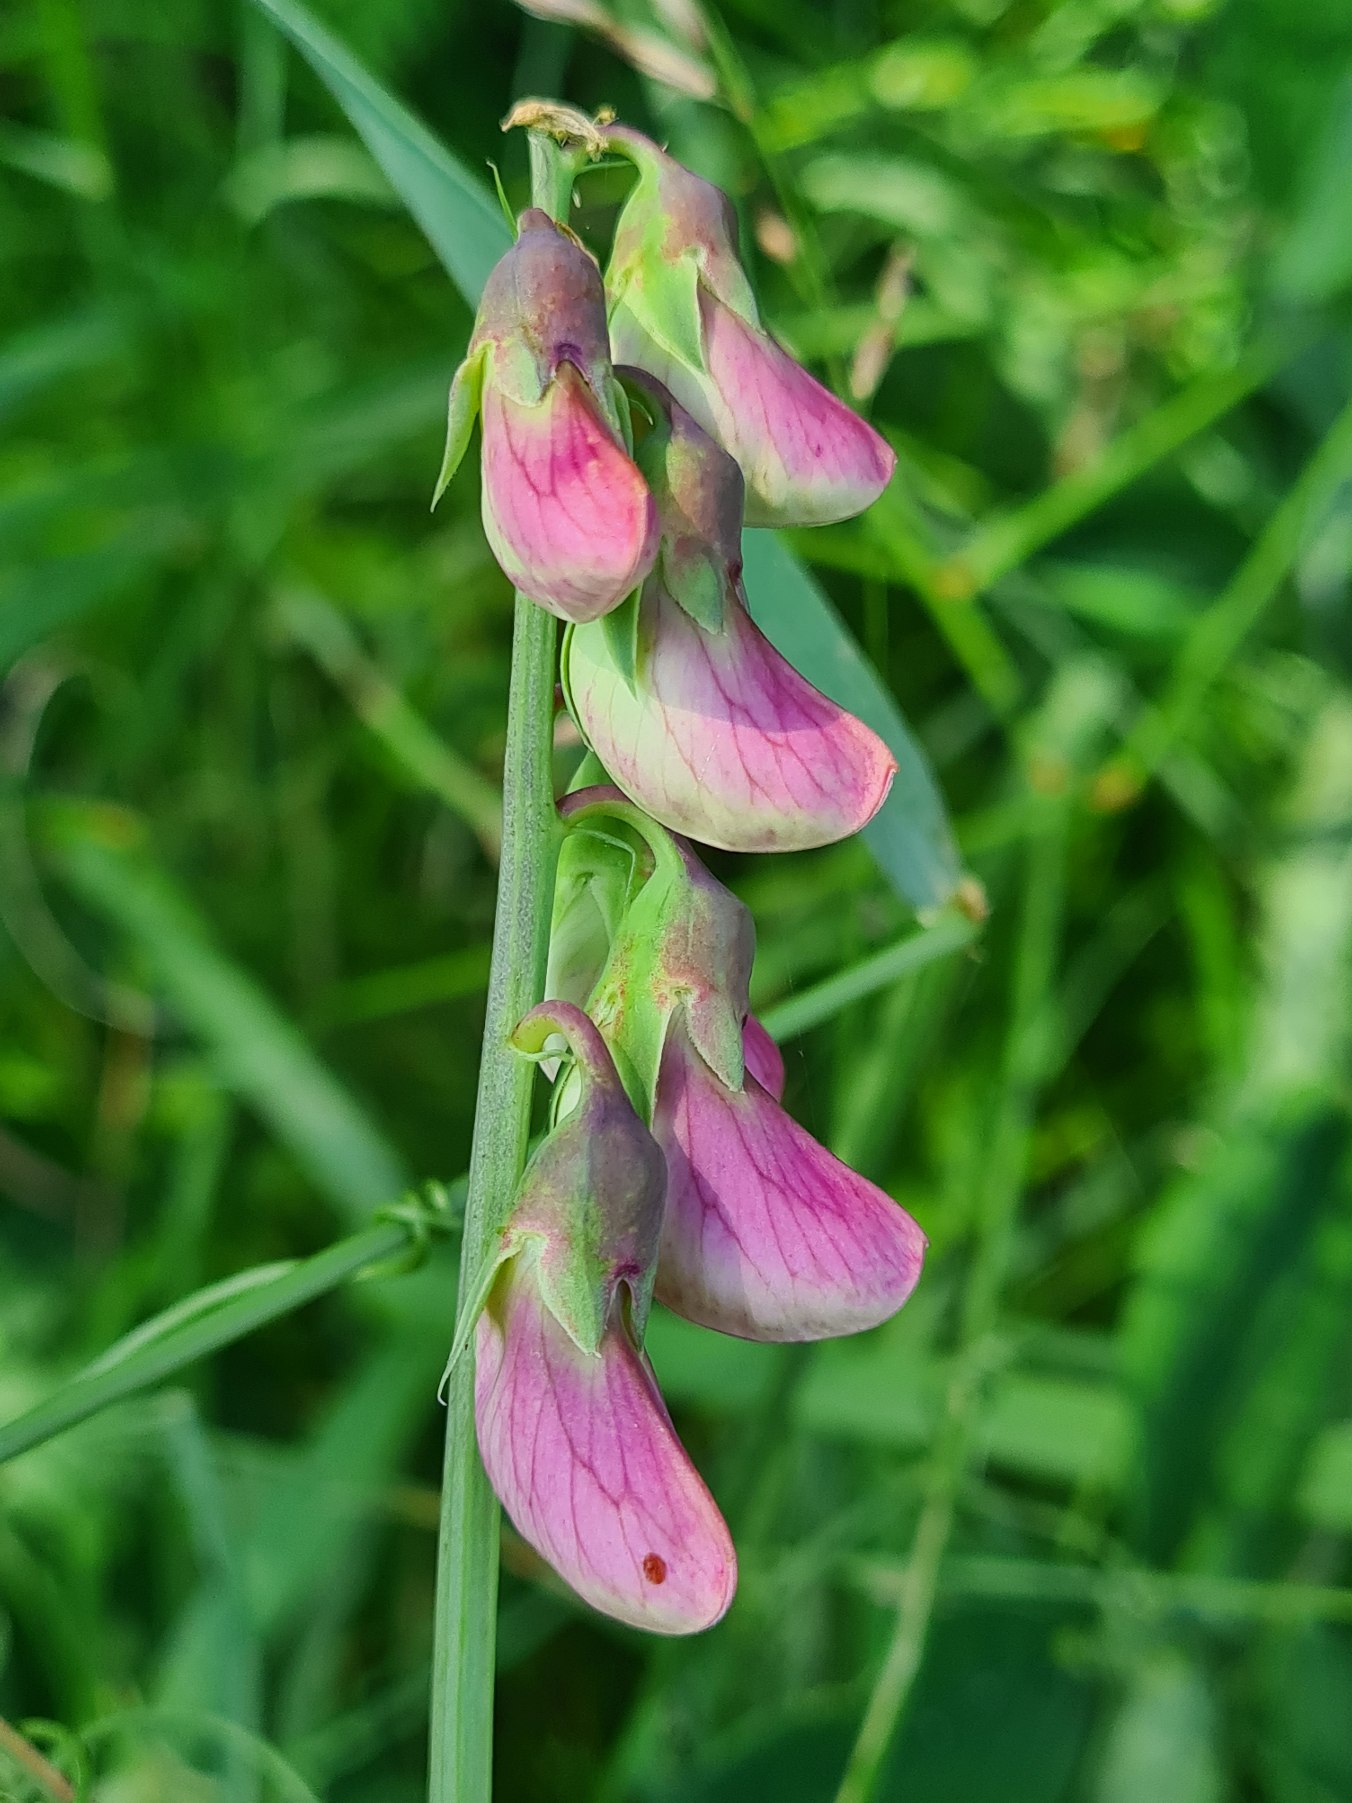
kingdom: Plantae
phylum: Tracheophyta
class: Magnoliopsida
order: Fabales
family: Fabaceae
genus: Lathyrus
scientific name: Lathyrus latifolius
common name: Flerårig ærteblomst
